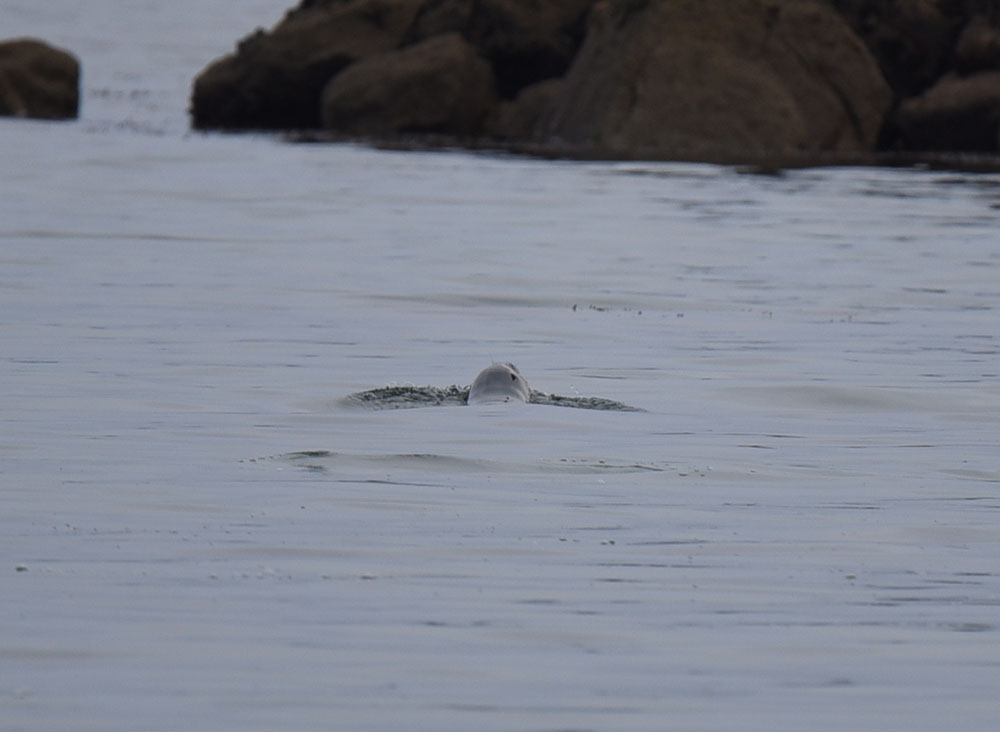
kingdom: Animalia
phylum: Chordata
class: Mammalia
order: Carnivora
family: Otariidae
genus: Phocarctos
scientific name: Phocarctos hookeri
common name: New zealand sea lion
